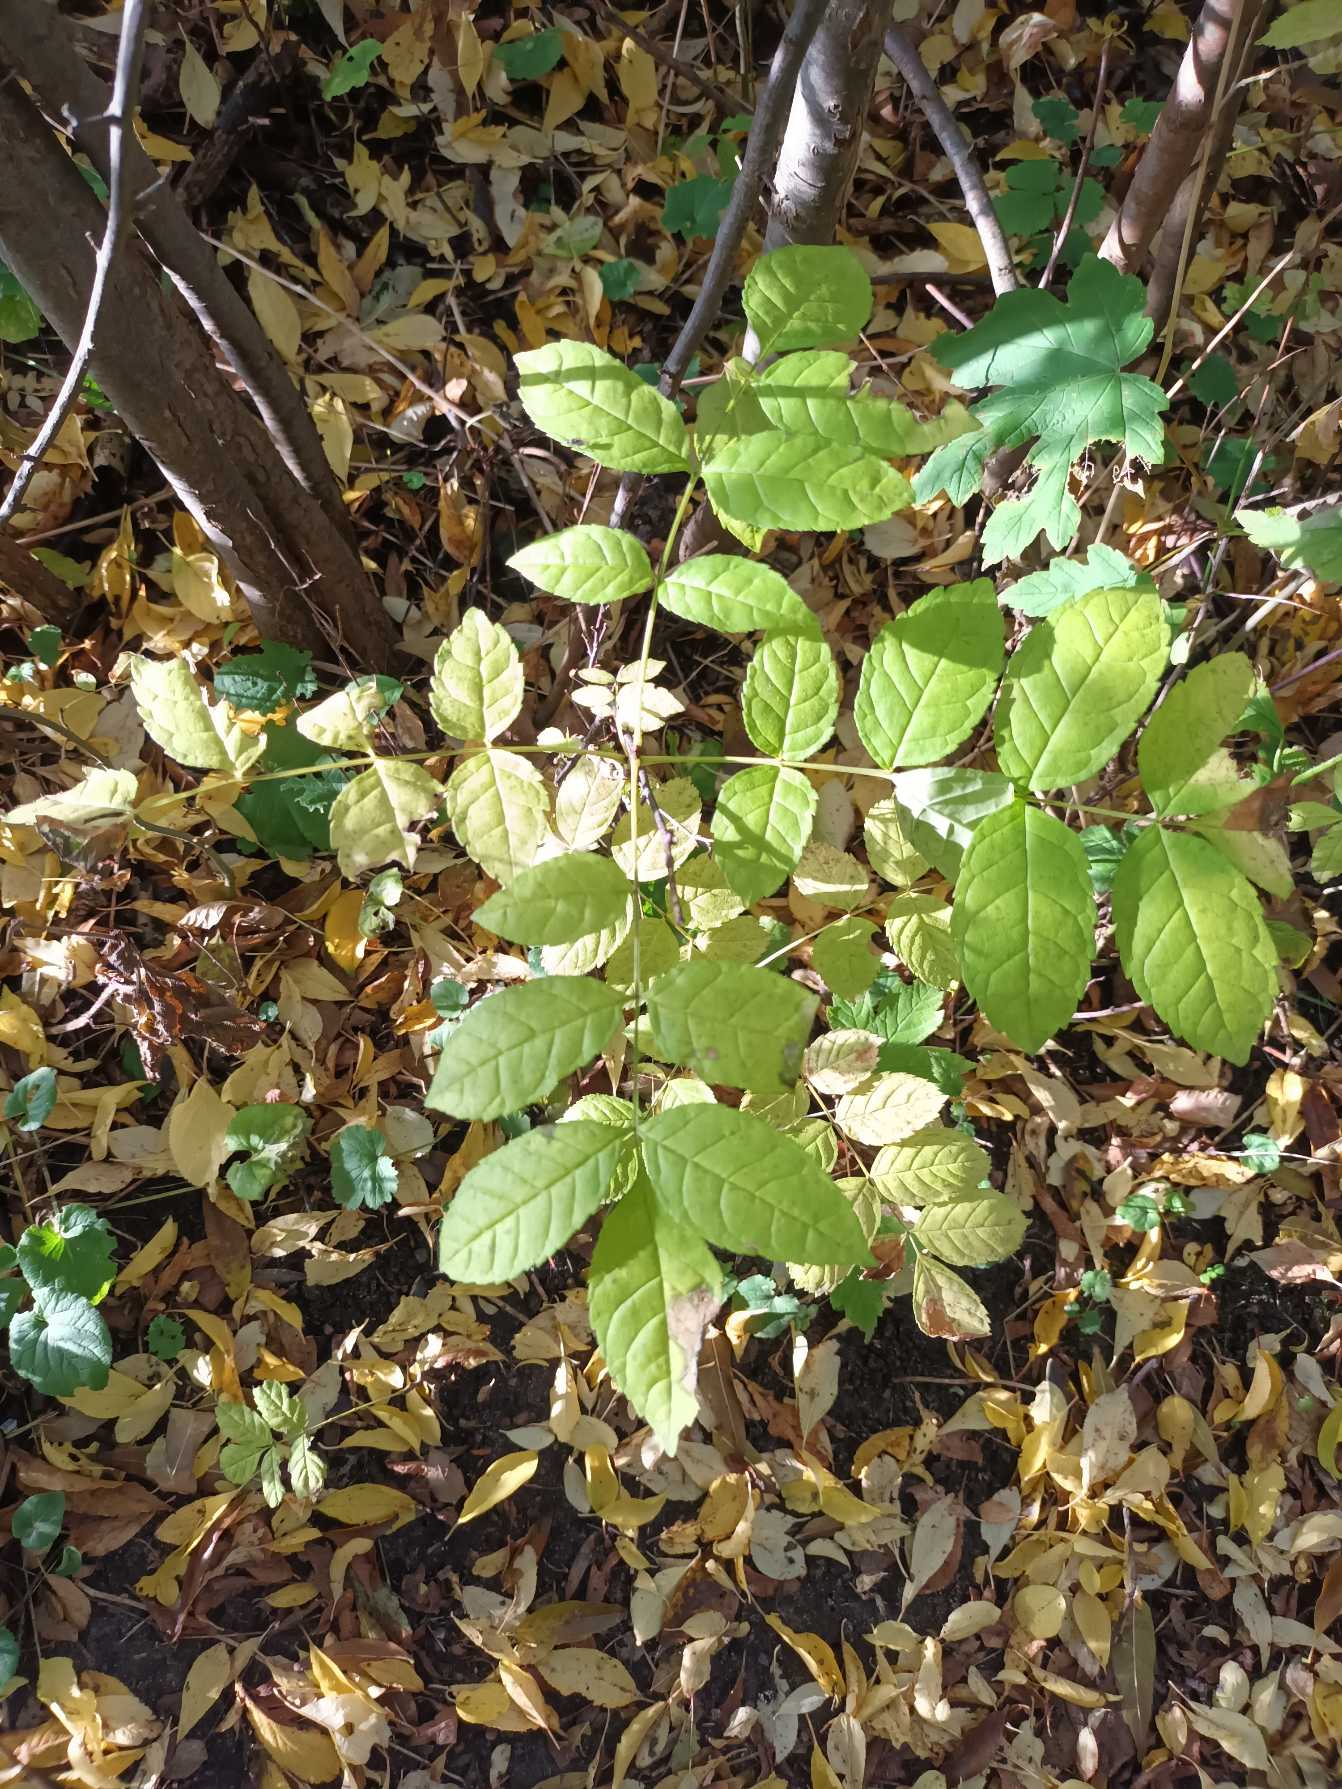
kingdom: Plantae
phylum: Tracheophyta
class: Magnoliopsida
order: Lamiales
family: Oleaceae
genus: Fraxinus
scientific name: Fraxinus excelsior
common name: Ask
